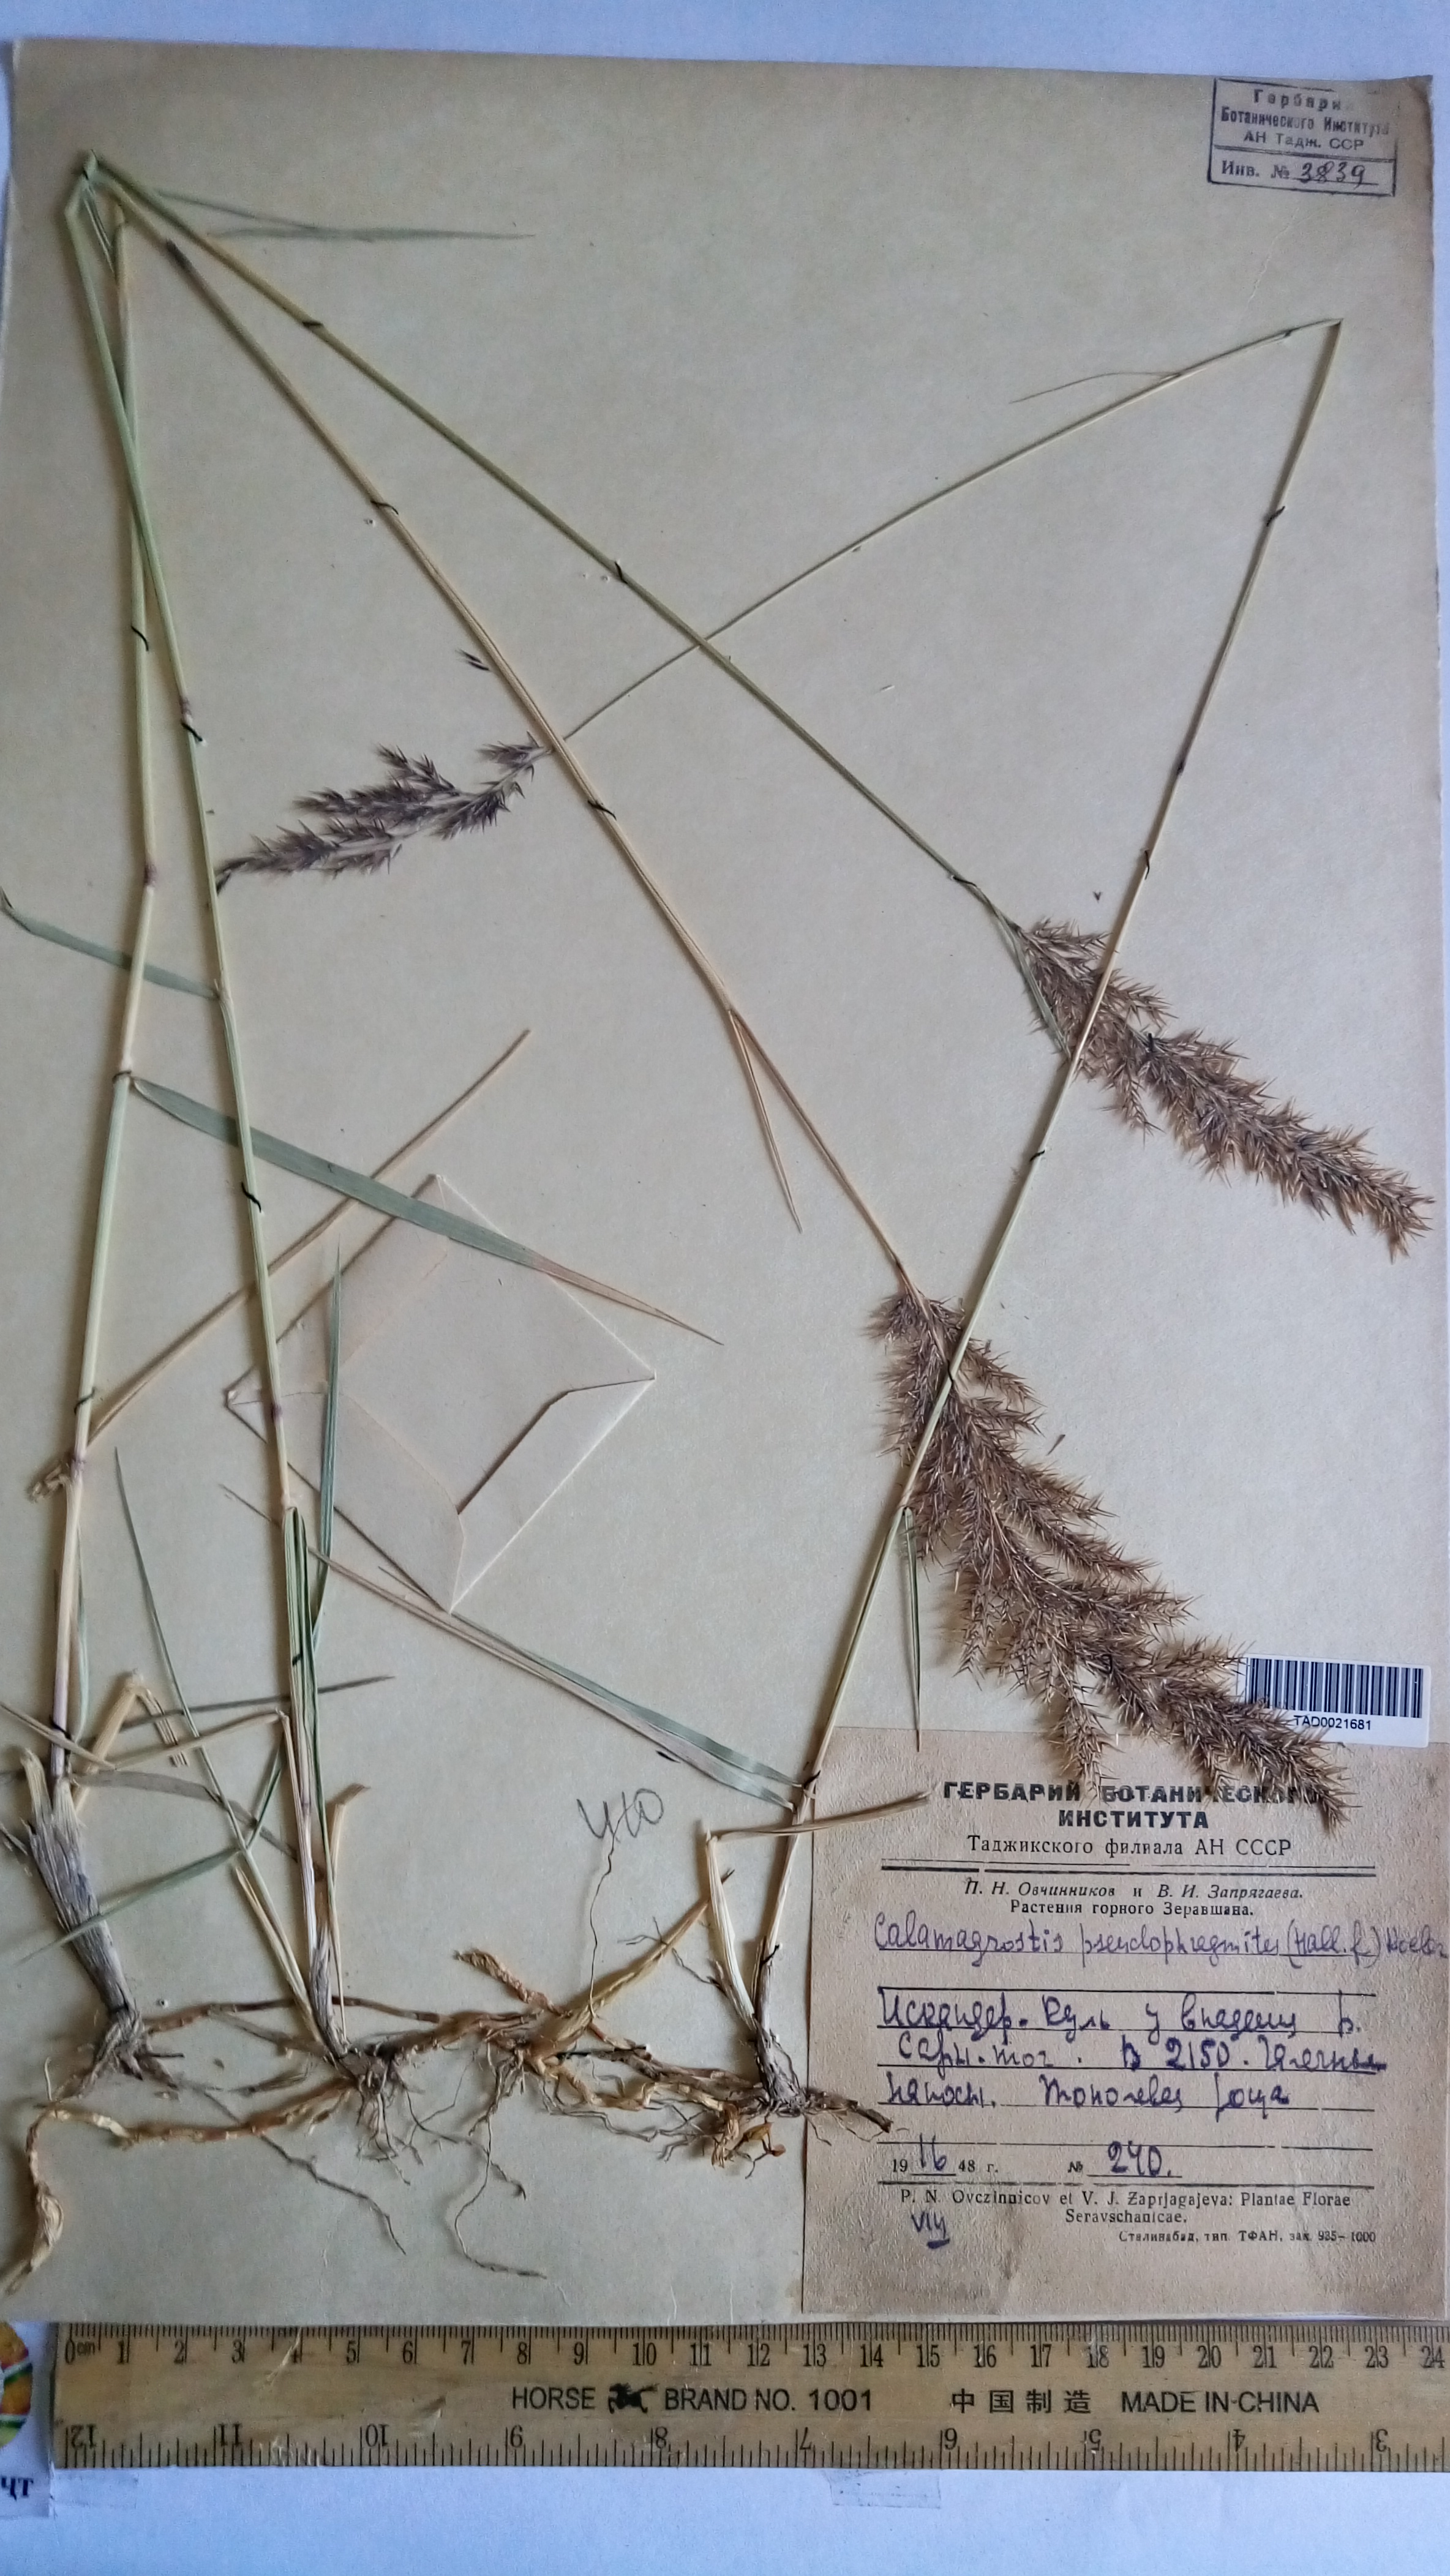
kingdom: Plantae
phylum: Tracheophyta
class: Liliopsida
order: Poales
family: Poaceae
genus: Calamagrostis
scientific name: Calamagrostis pseudophragmites
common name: Coastal small-reed
